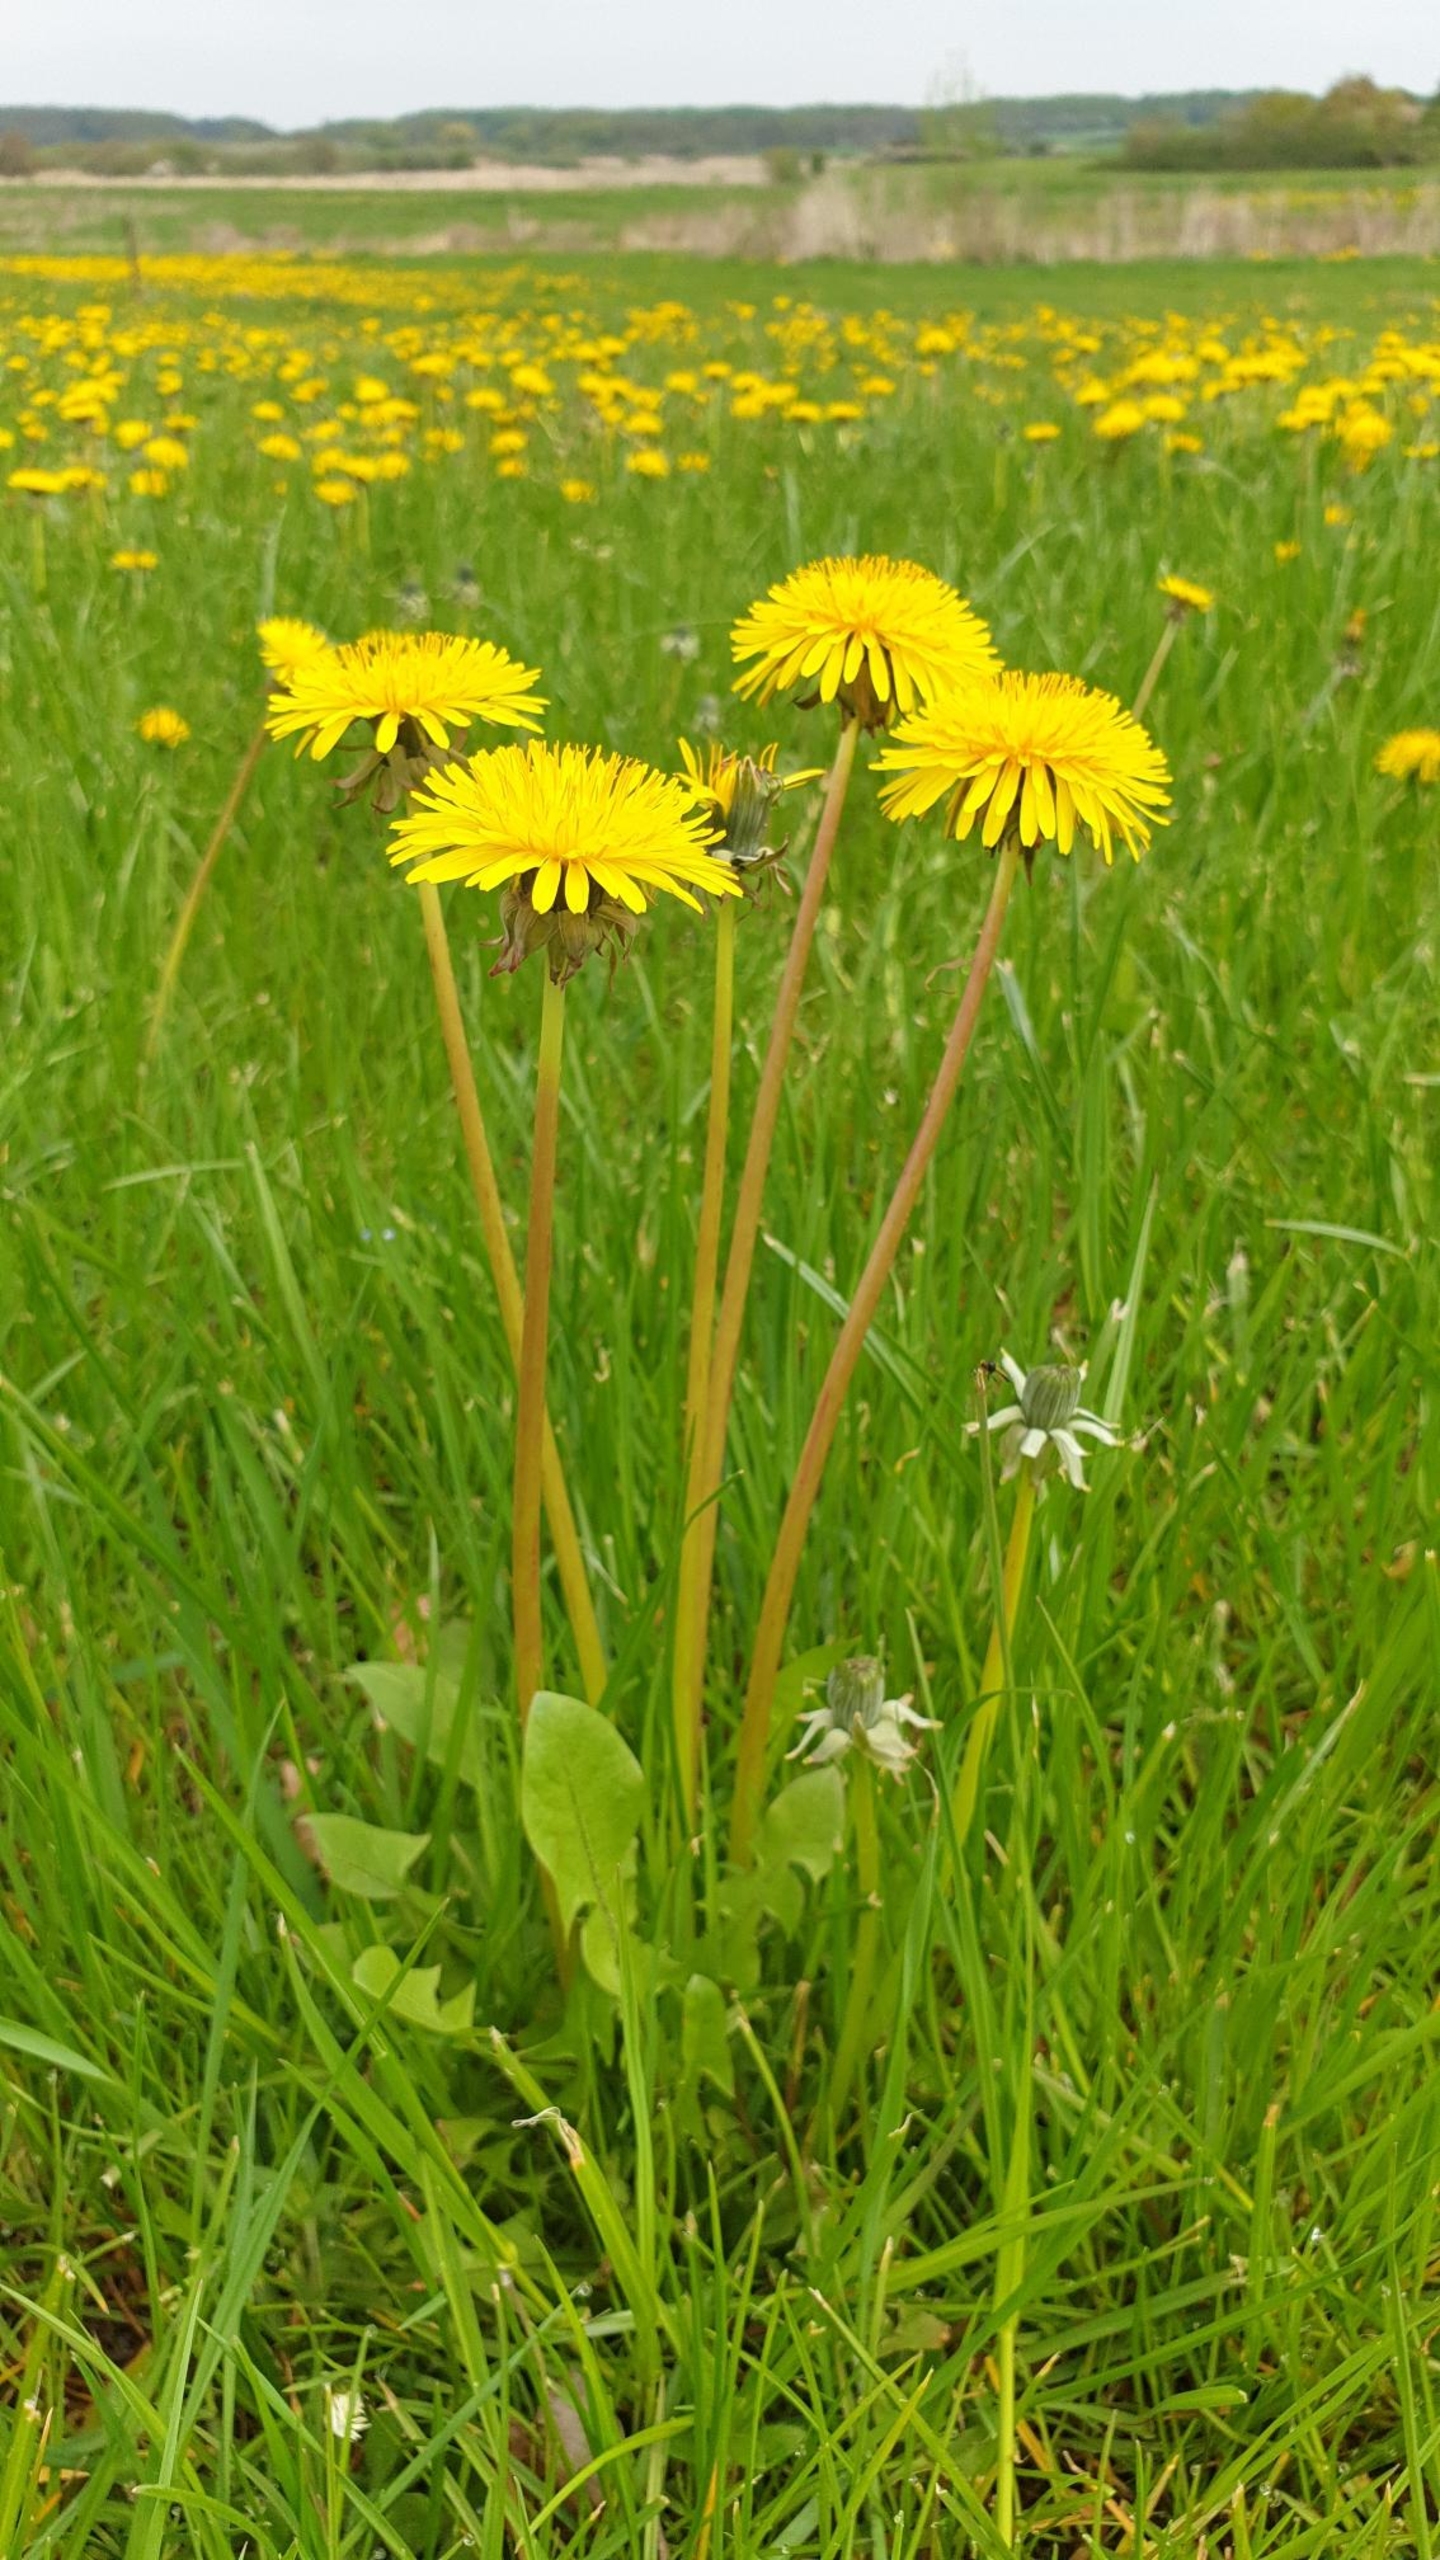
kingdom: Plantae
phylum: Tracheophyta
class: Magnoliopsida
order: Asterales
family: Asteraceae
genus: Taraxacum
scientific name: Taraxacum
